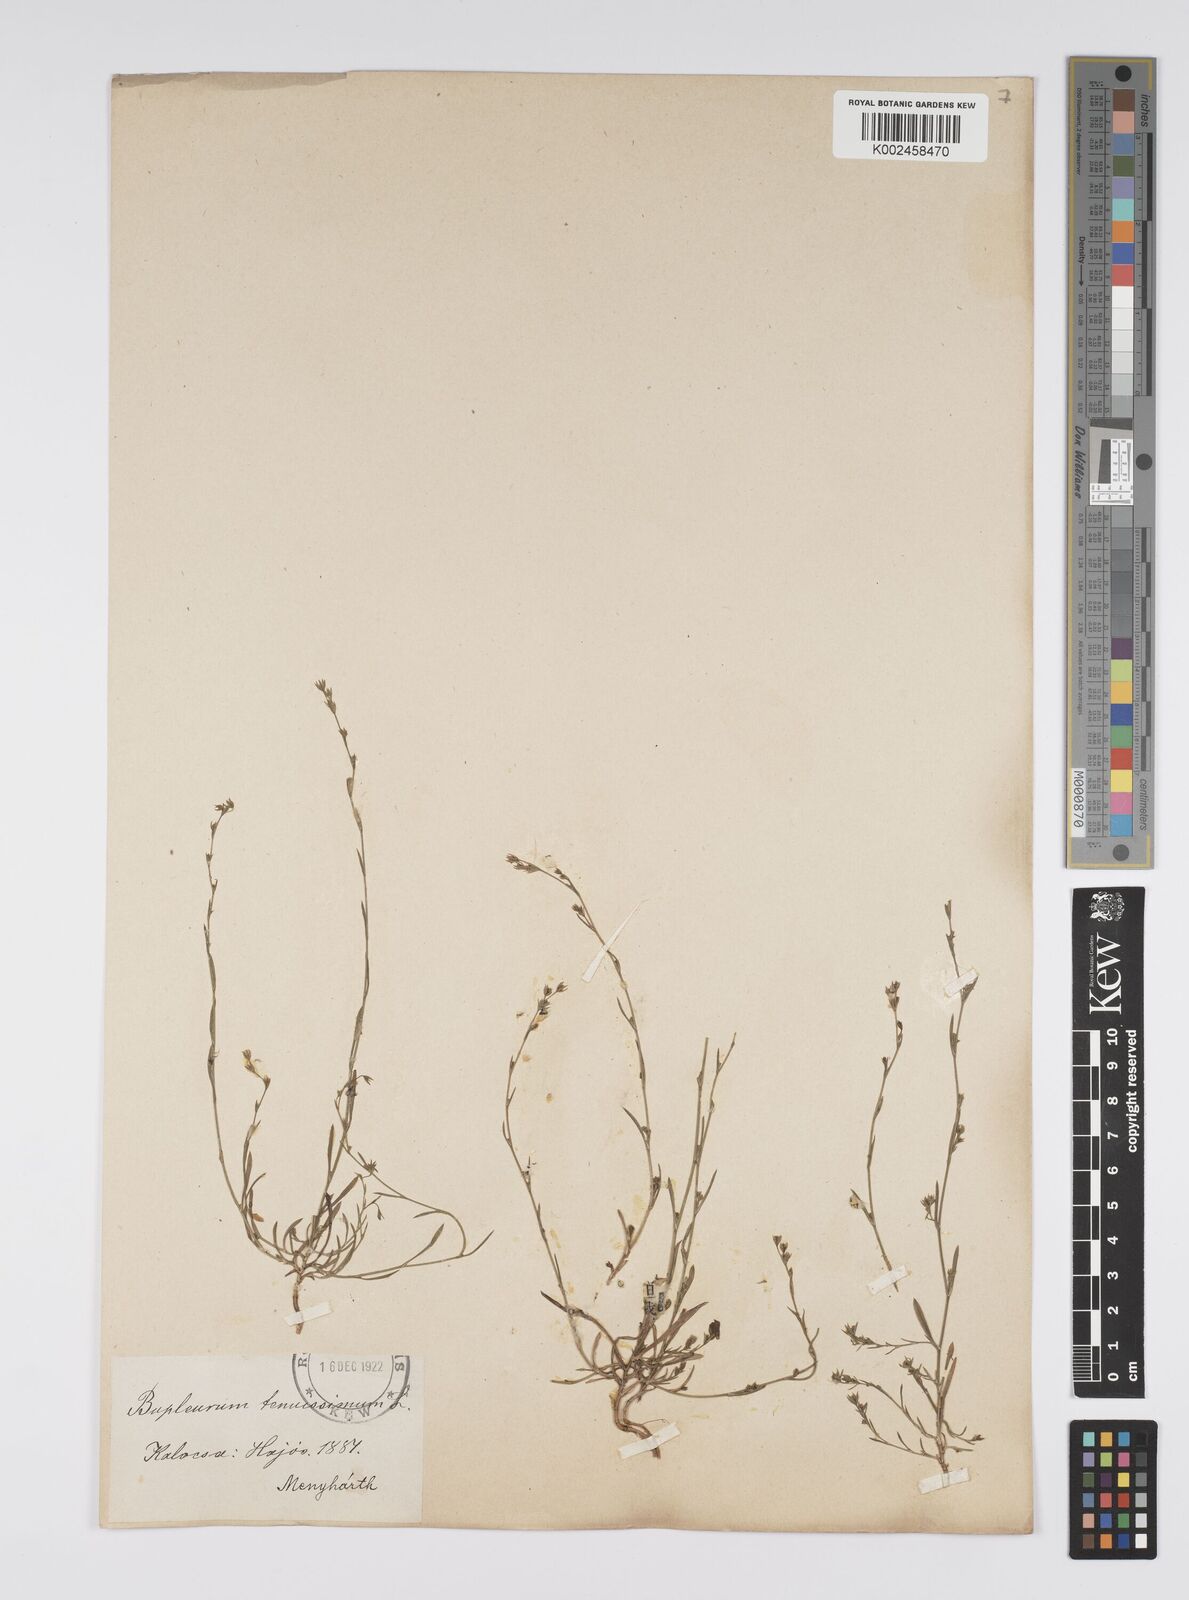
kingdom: Plantae
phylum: Tracheophyta
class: Magnoliopsida
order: Apiales
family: Apiaceae
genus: Bupleurum
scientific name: Bupleurum tenuissimum
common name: Slender hare's-ear
